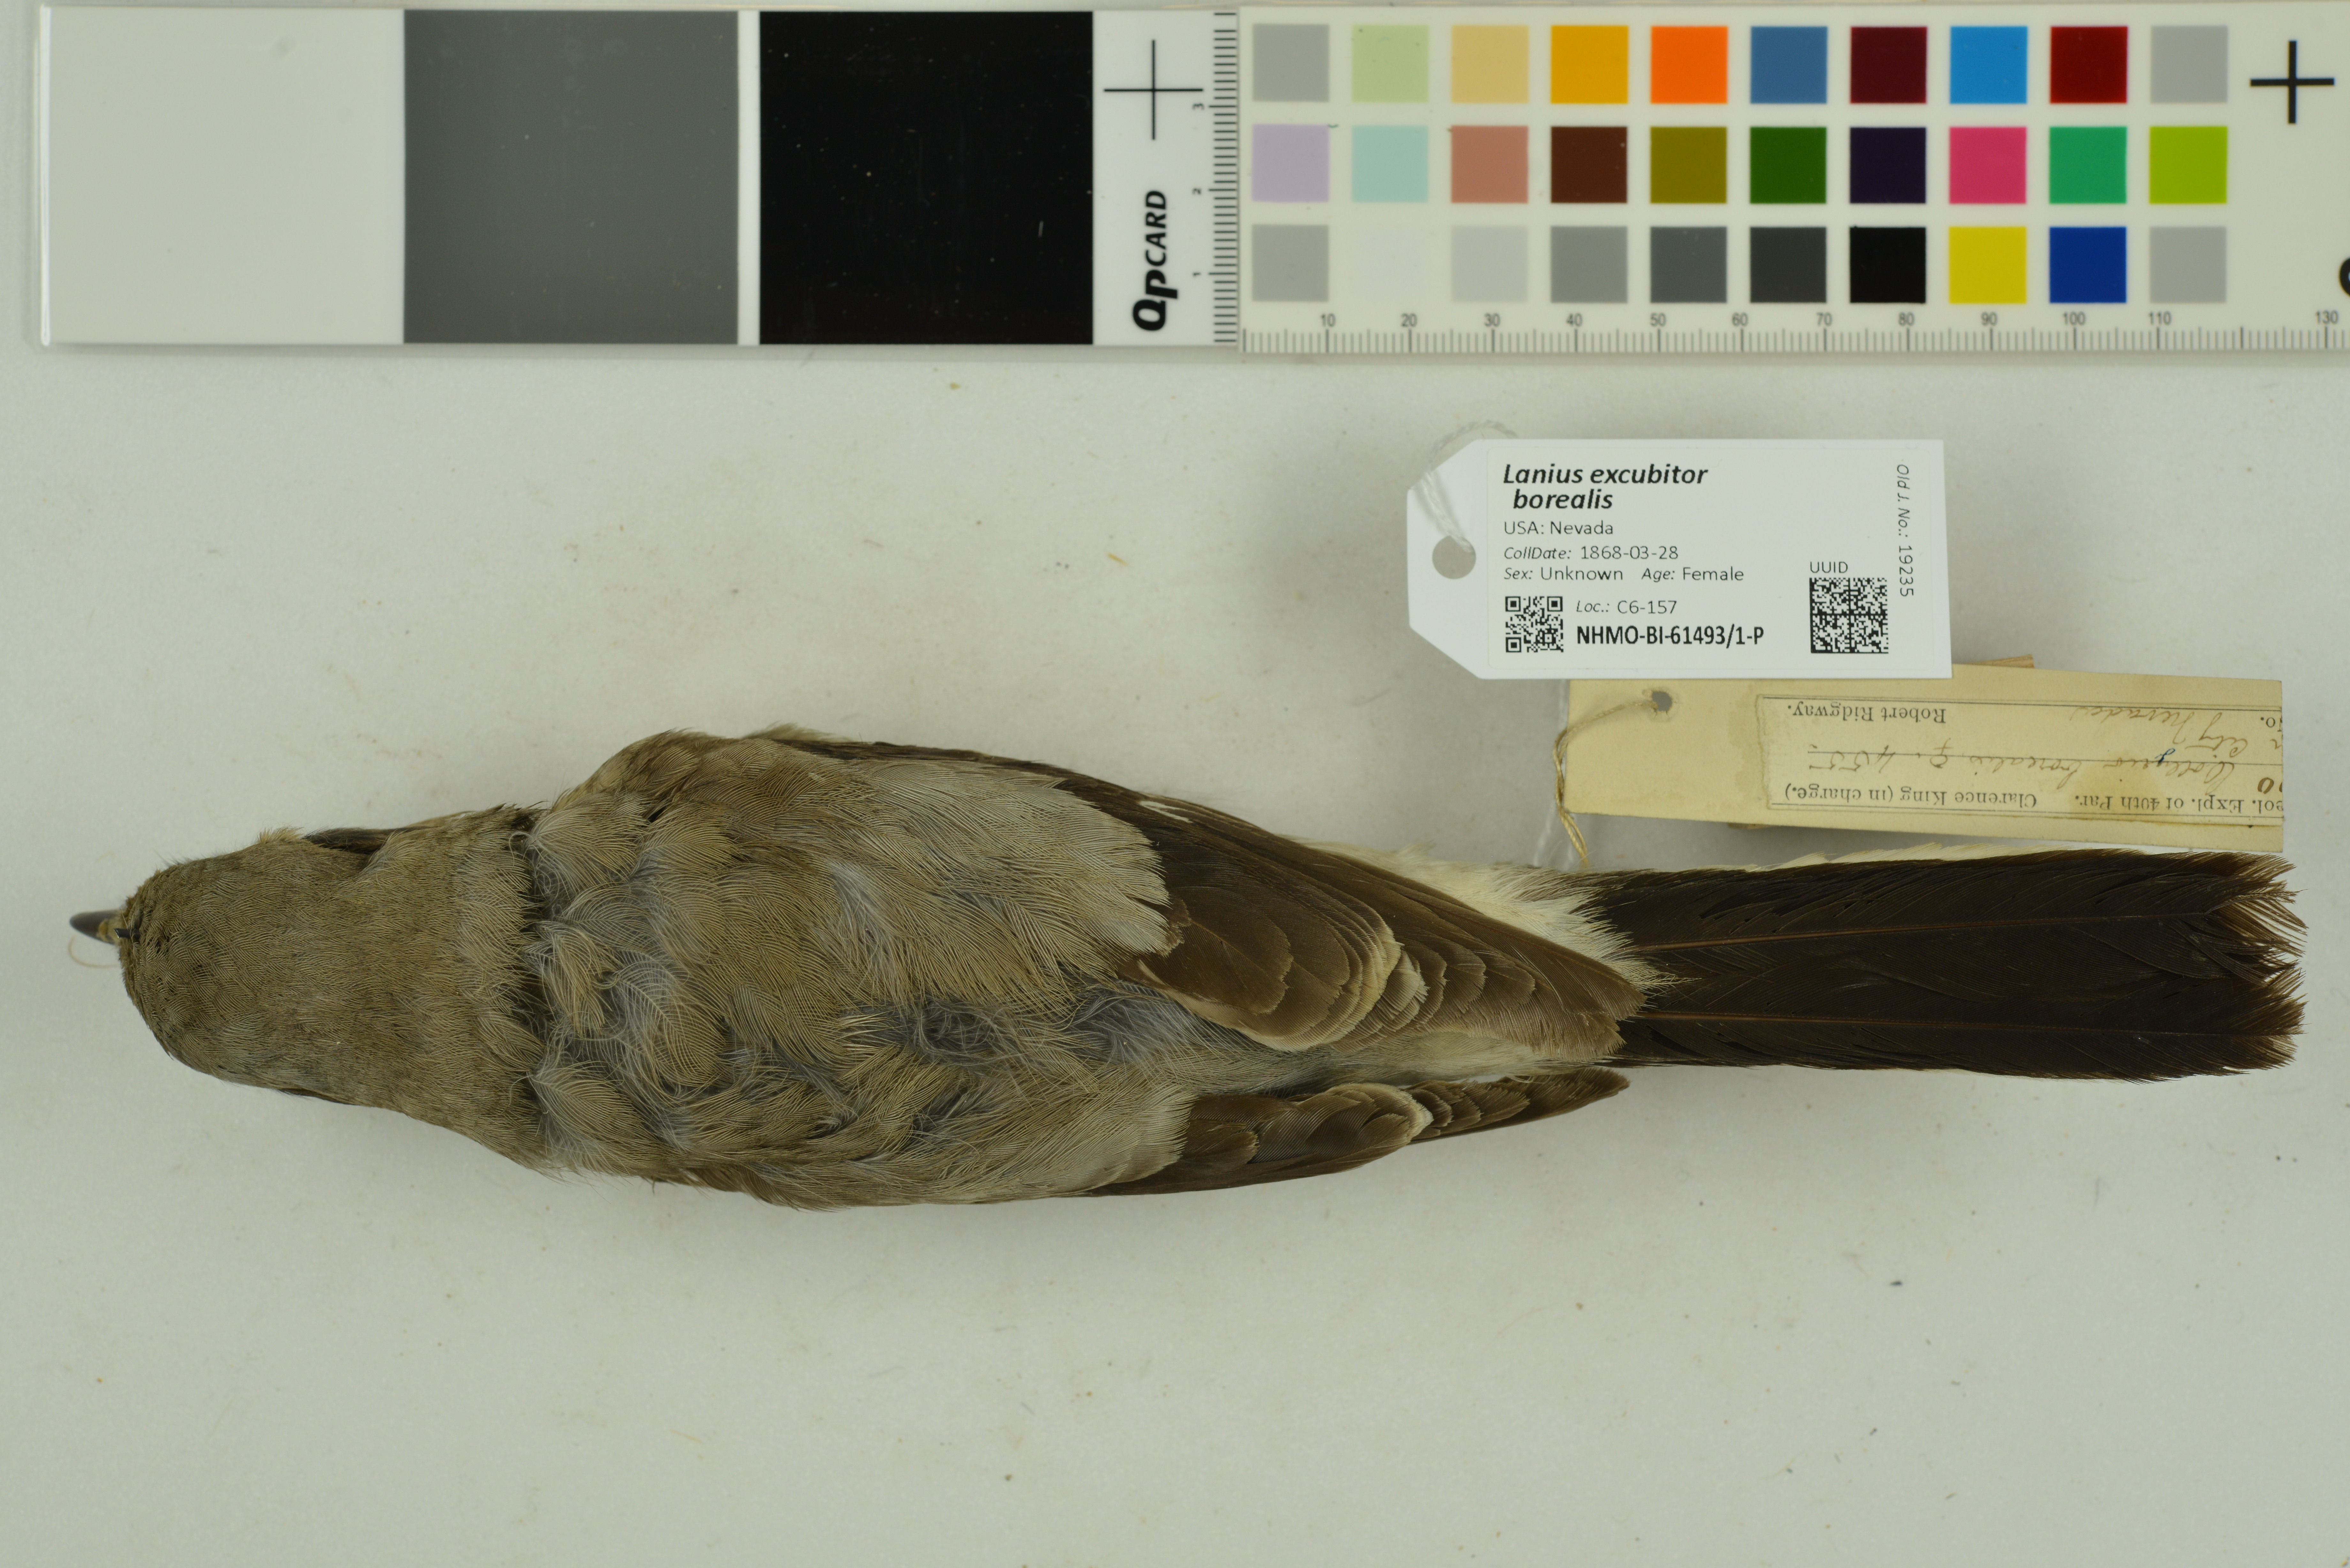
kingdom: Animalia
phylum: Chordata
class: Aves
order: Passeriformes
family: Laniidae
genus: Lanius
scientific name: Lanius borealis
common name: Northern shrike
